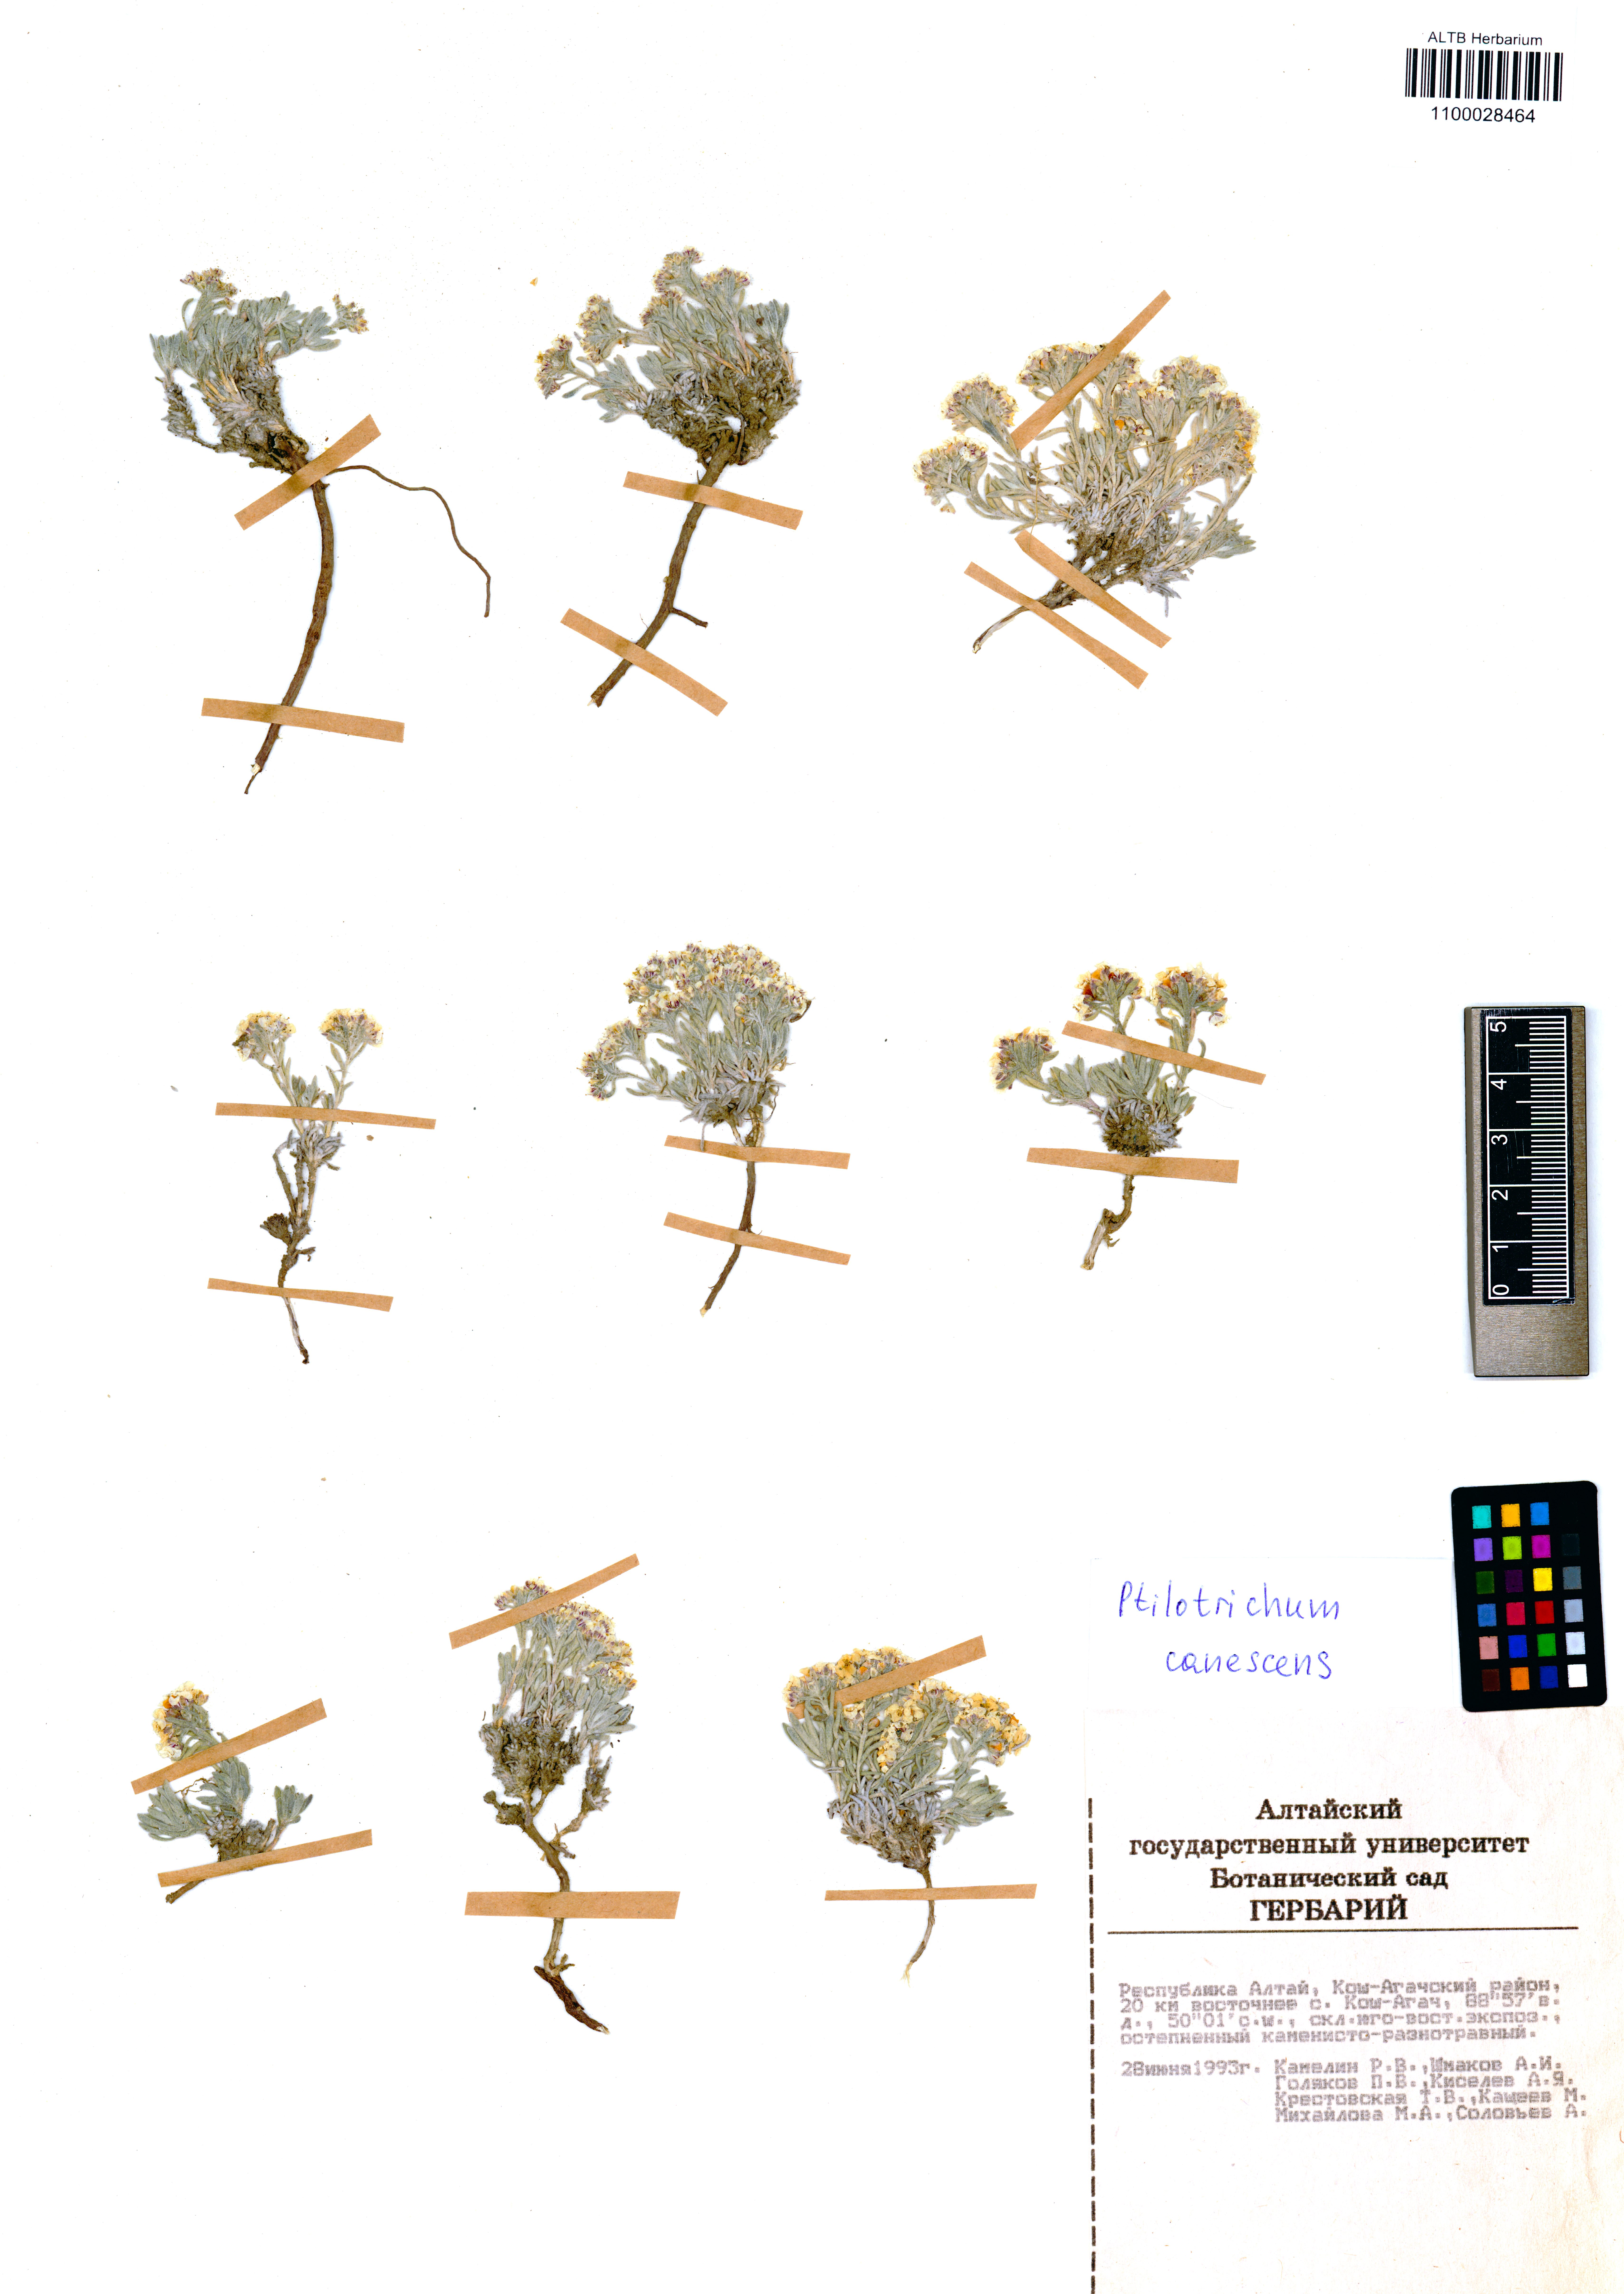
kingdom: Plantae
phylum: Tracheophyta
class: Magnoliopsida
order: Brassicales
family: Brassicaceae
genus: Stevenia
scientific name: Stevenia canescens
